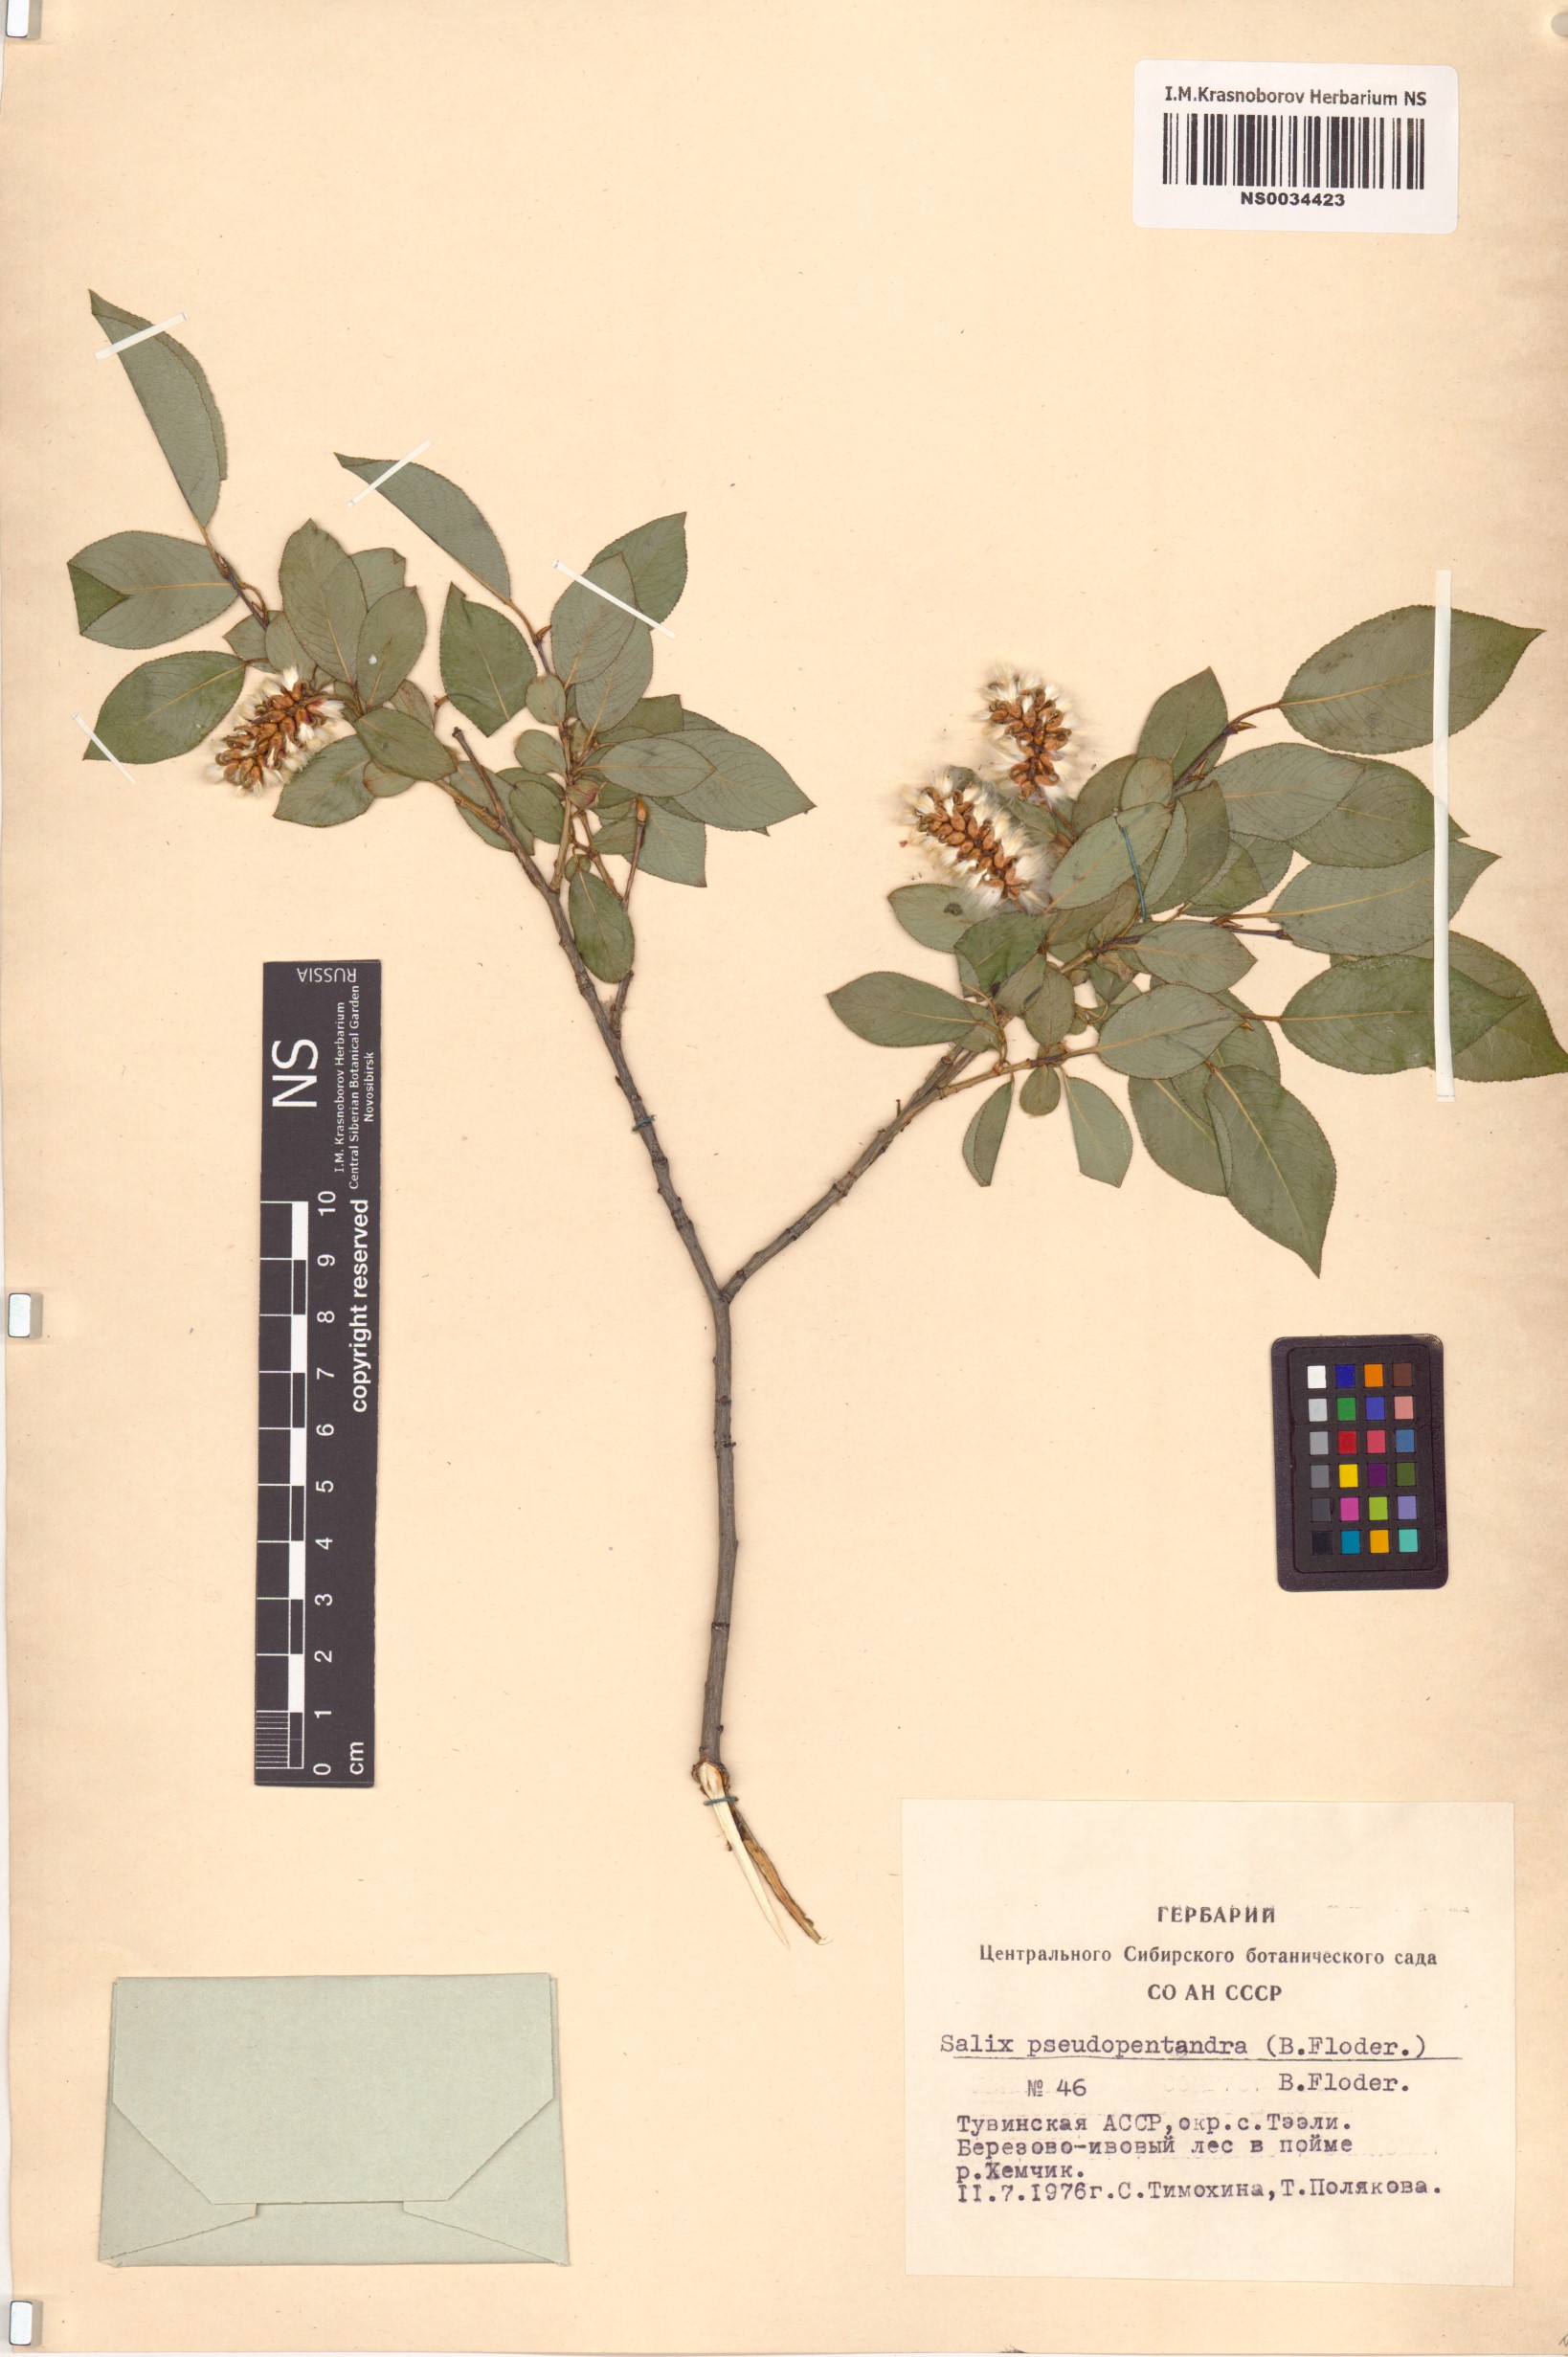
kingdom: Plantae
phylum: Tracheophyta
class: Magnoliopsida
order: Malpighiales
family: Salicaceae
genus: Salix
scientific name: Salix pseudopentandra
